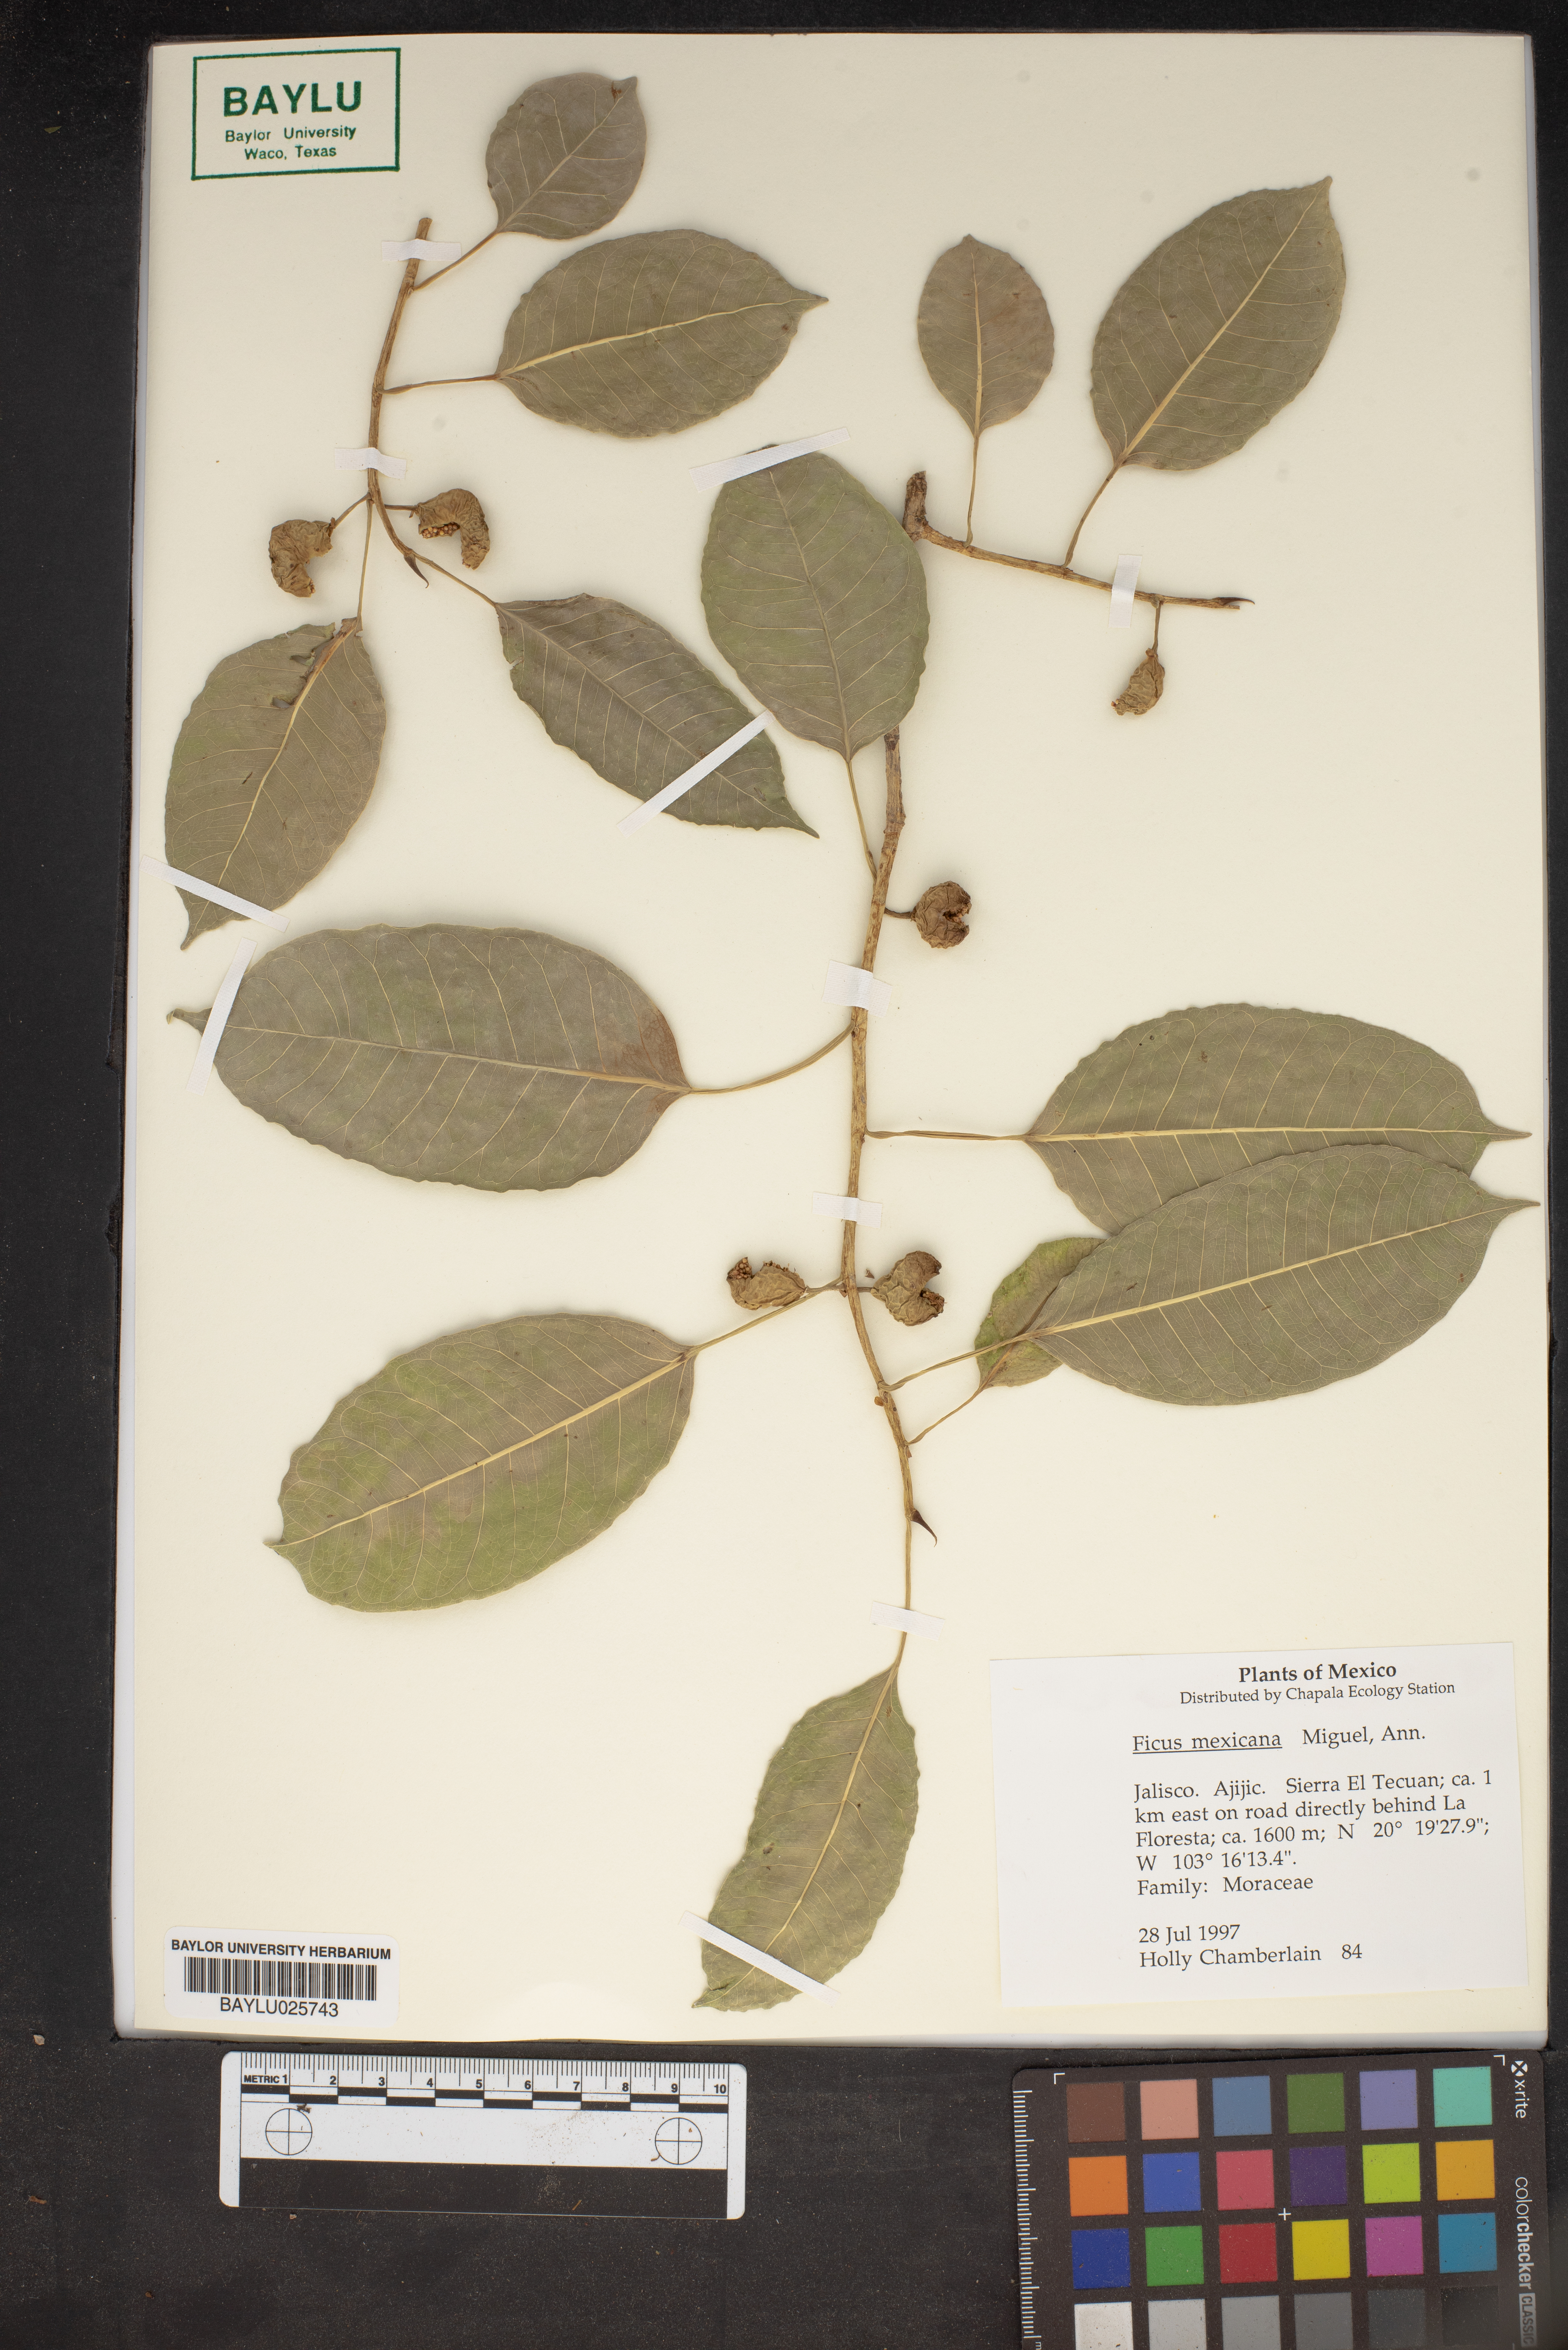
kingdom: Plantae
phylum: Tracheophyta
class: Magnoliopsida
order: Rosales
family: Moraceae
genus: Ficus
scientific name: Ficus maxima
